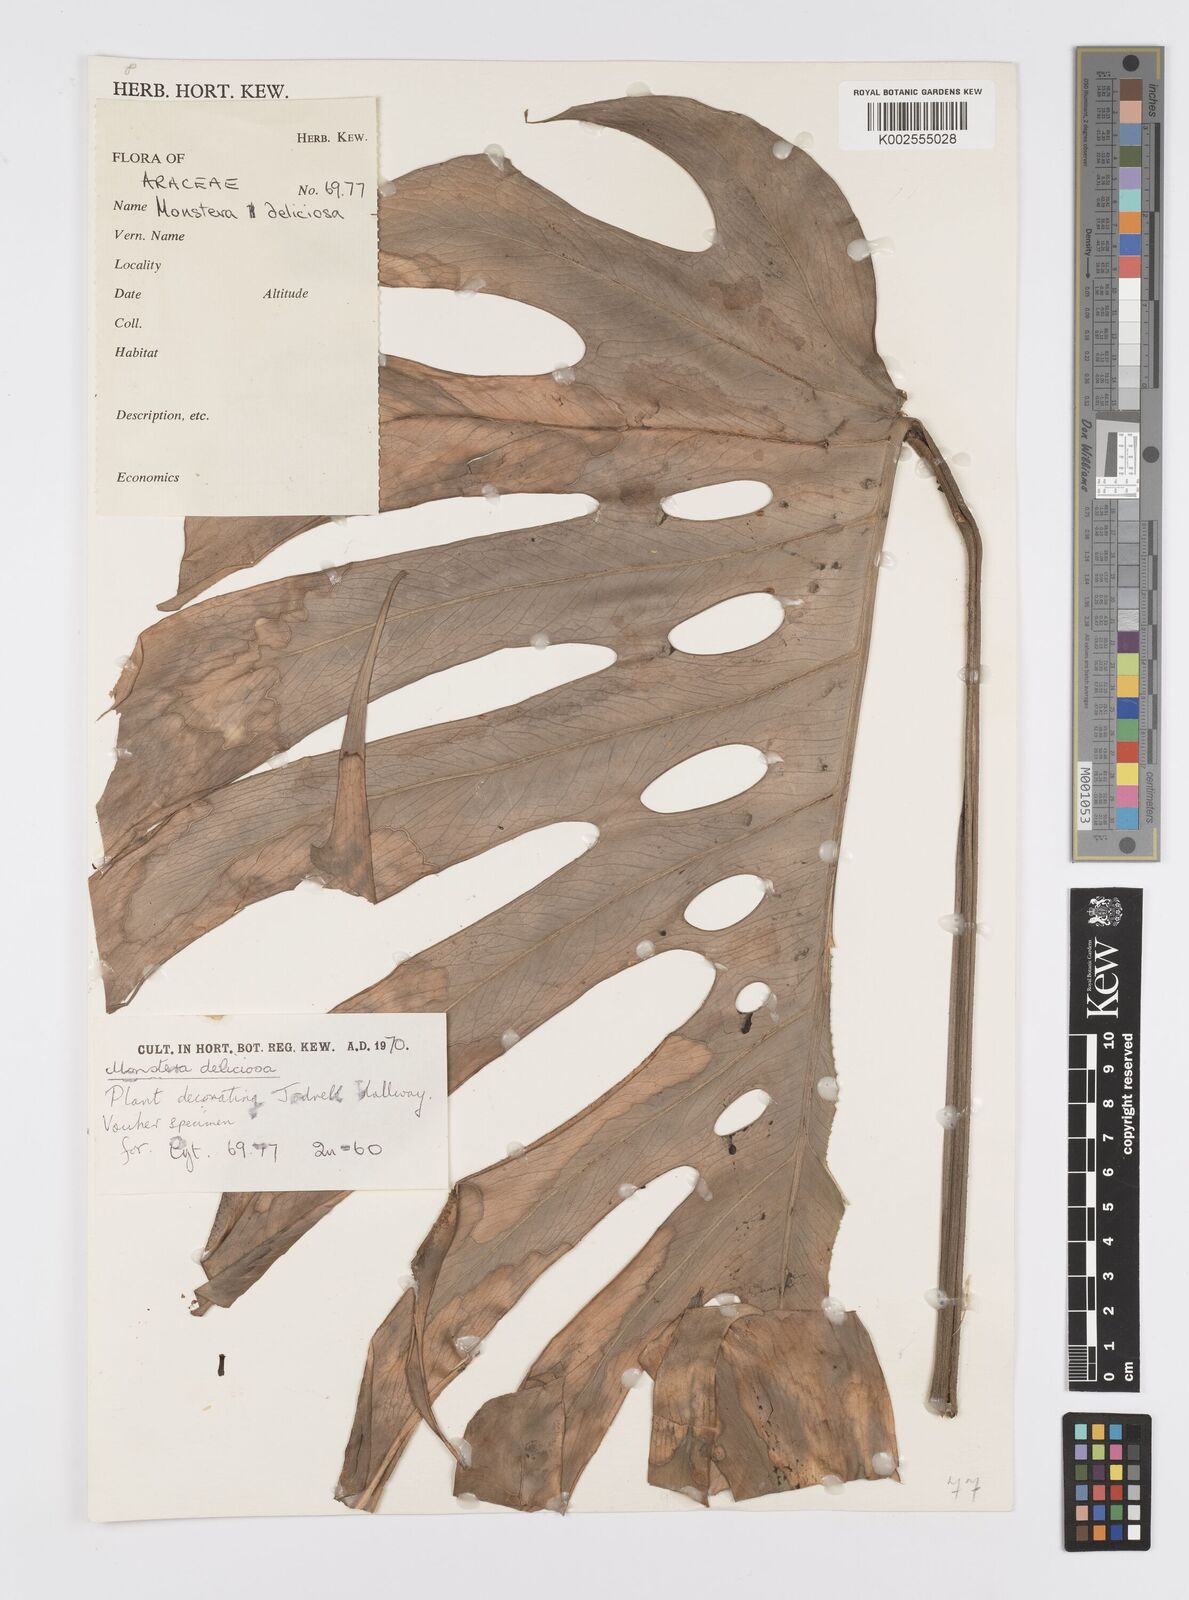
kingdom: Plantae
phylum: Tracheophyta
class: Liliopsida
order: Alismatales
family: Araceae
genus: Monstera
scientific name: Monstera deliciosa
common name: Cut-leaf-philodendron
